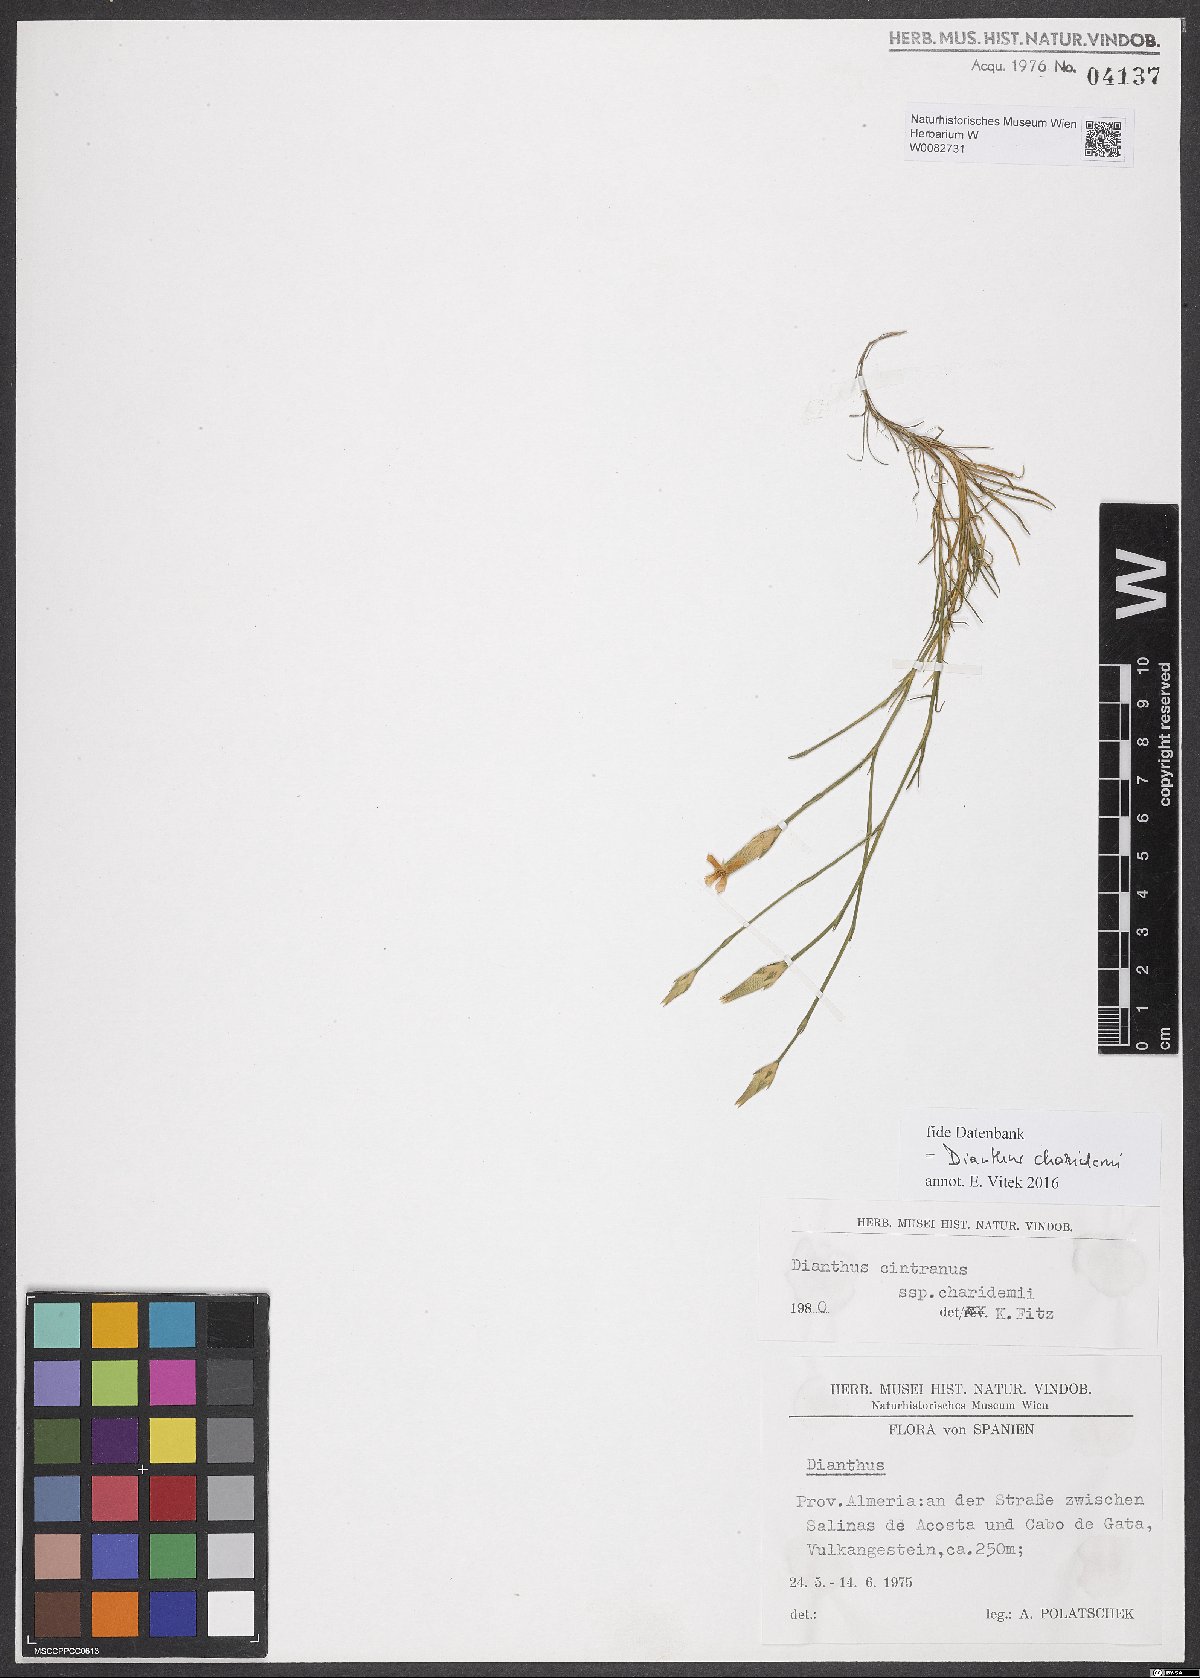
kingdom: Plantae
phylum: Tracheophyta
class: Magnoliopsida
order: Caryophyllales
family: Caryophyllaceae
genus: Dianthus
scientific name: Dianthus charidemi
